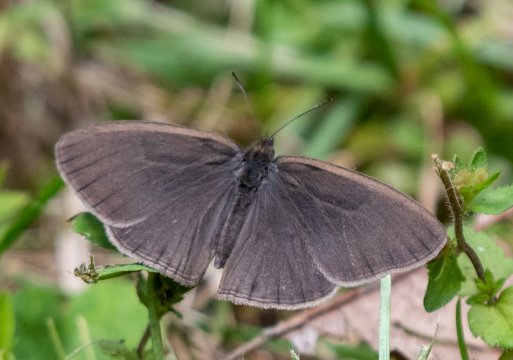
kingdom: Animalia
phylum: Arthropoda
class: Insecta
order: Lepidoptera
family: Nymphalidae
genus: Hermeuptychia
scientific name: Hermeuptychia hermes
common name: Carolina Satyr
